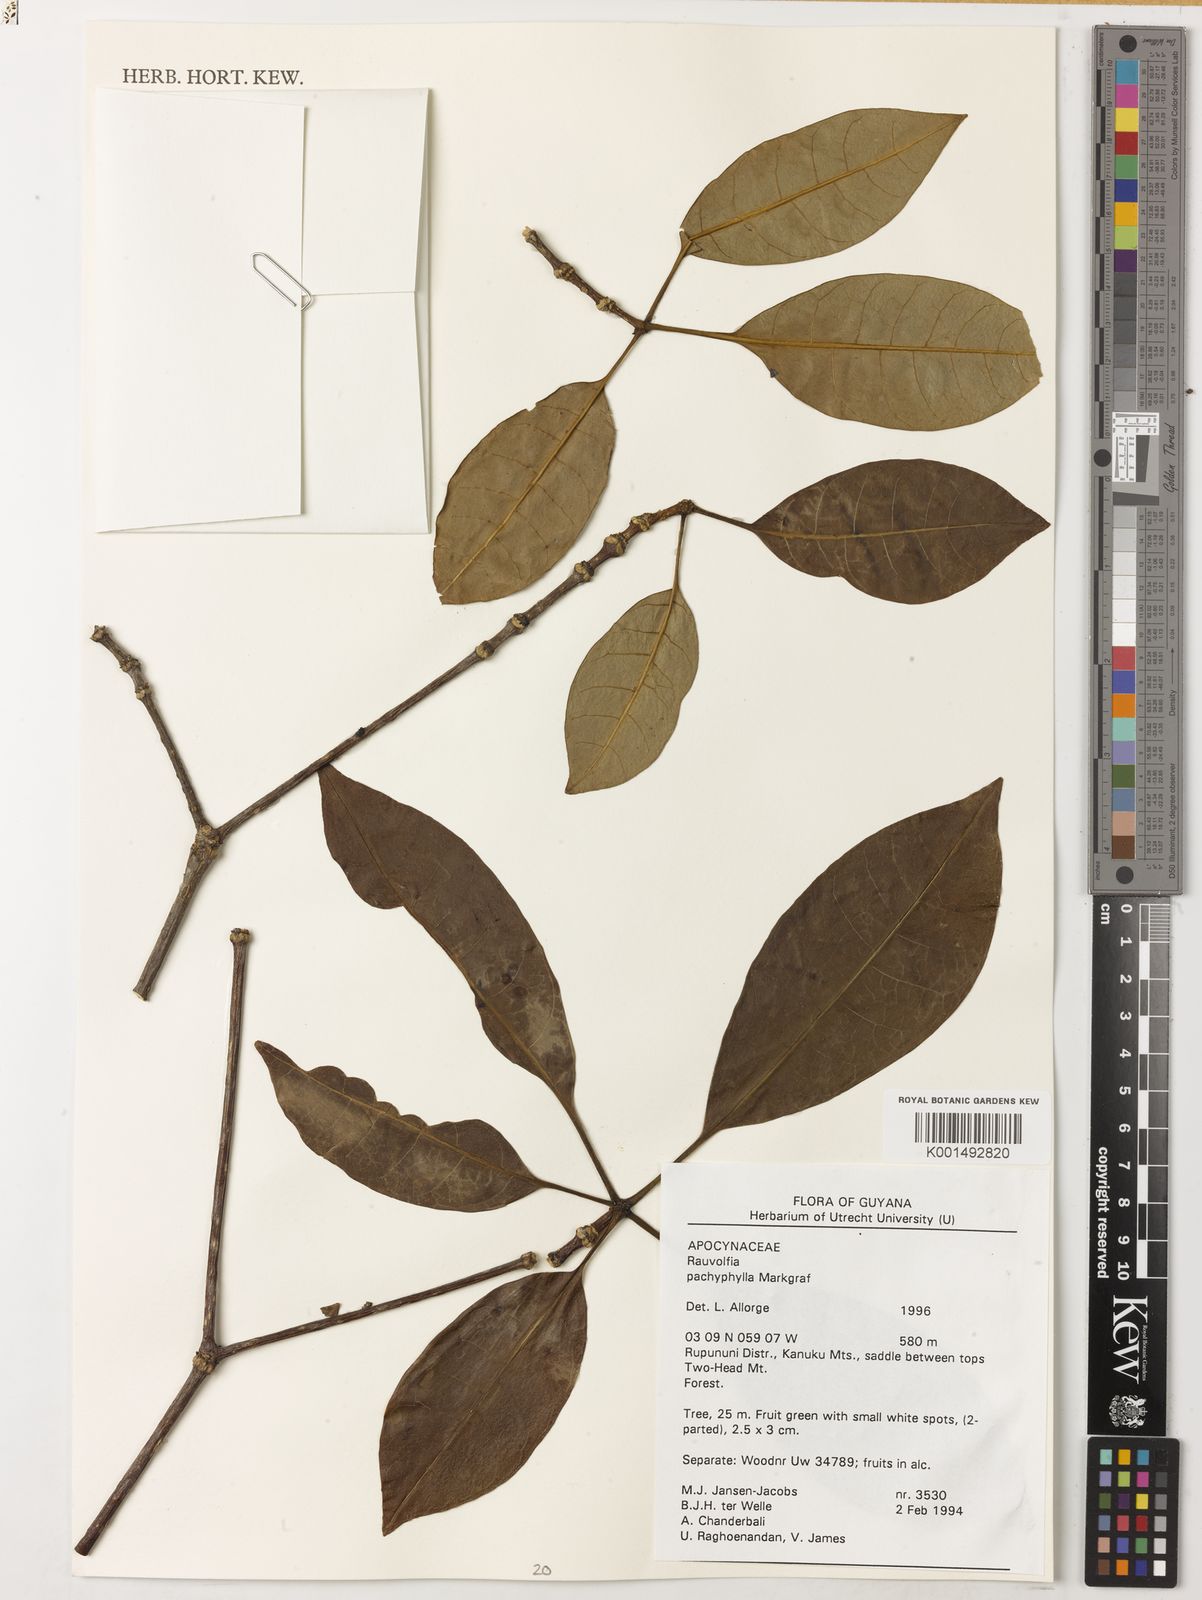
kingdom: Plantae
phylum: Tracheophyta
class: Magnoliopsida
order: Gentianales
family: Apocynaceae
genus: Rauvolfia
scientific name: Rauvolfia pachyphylla
